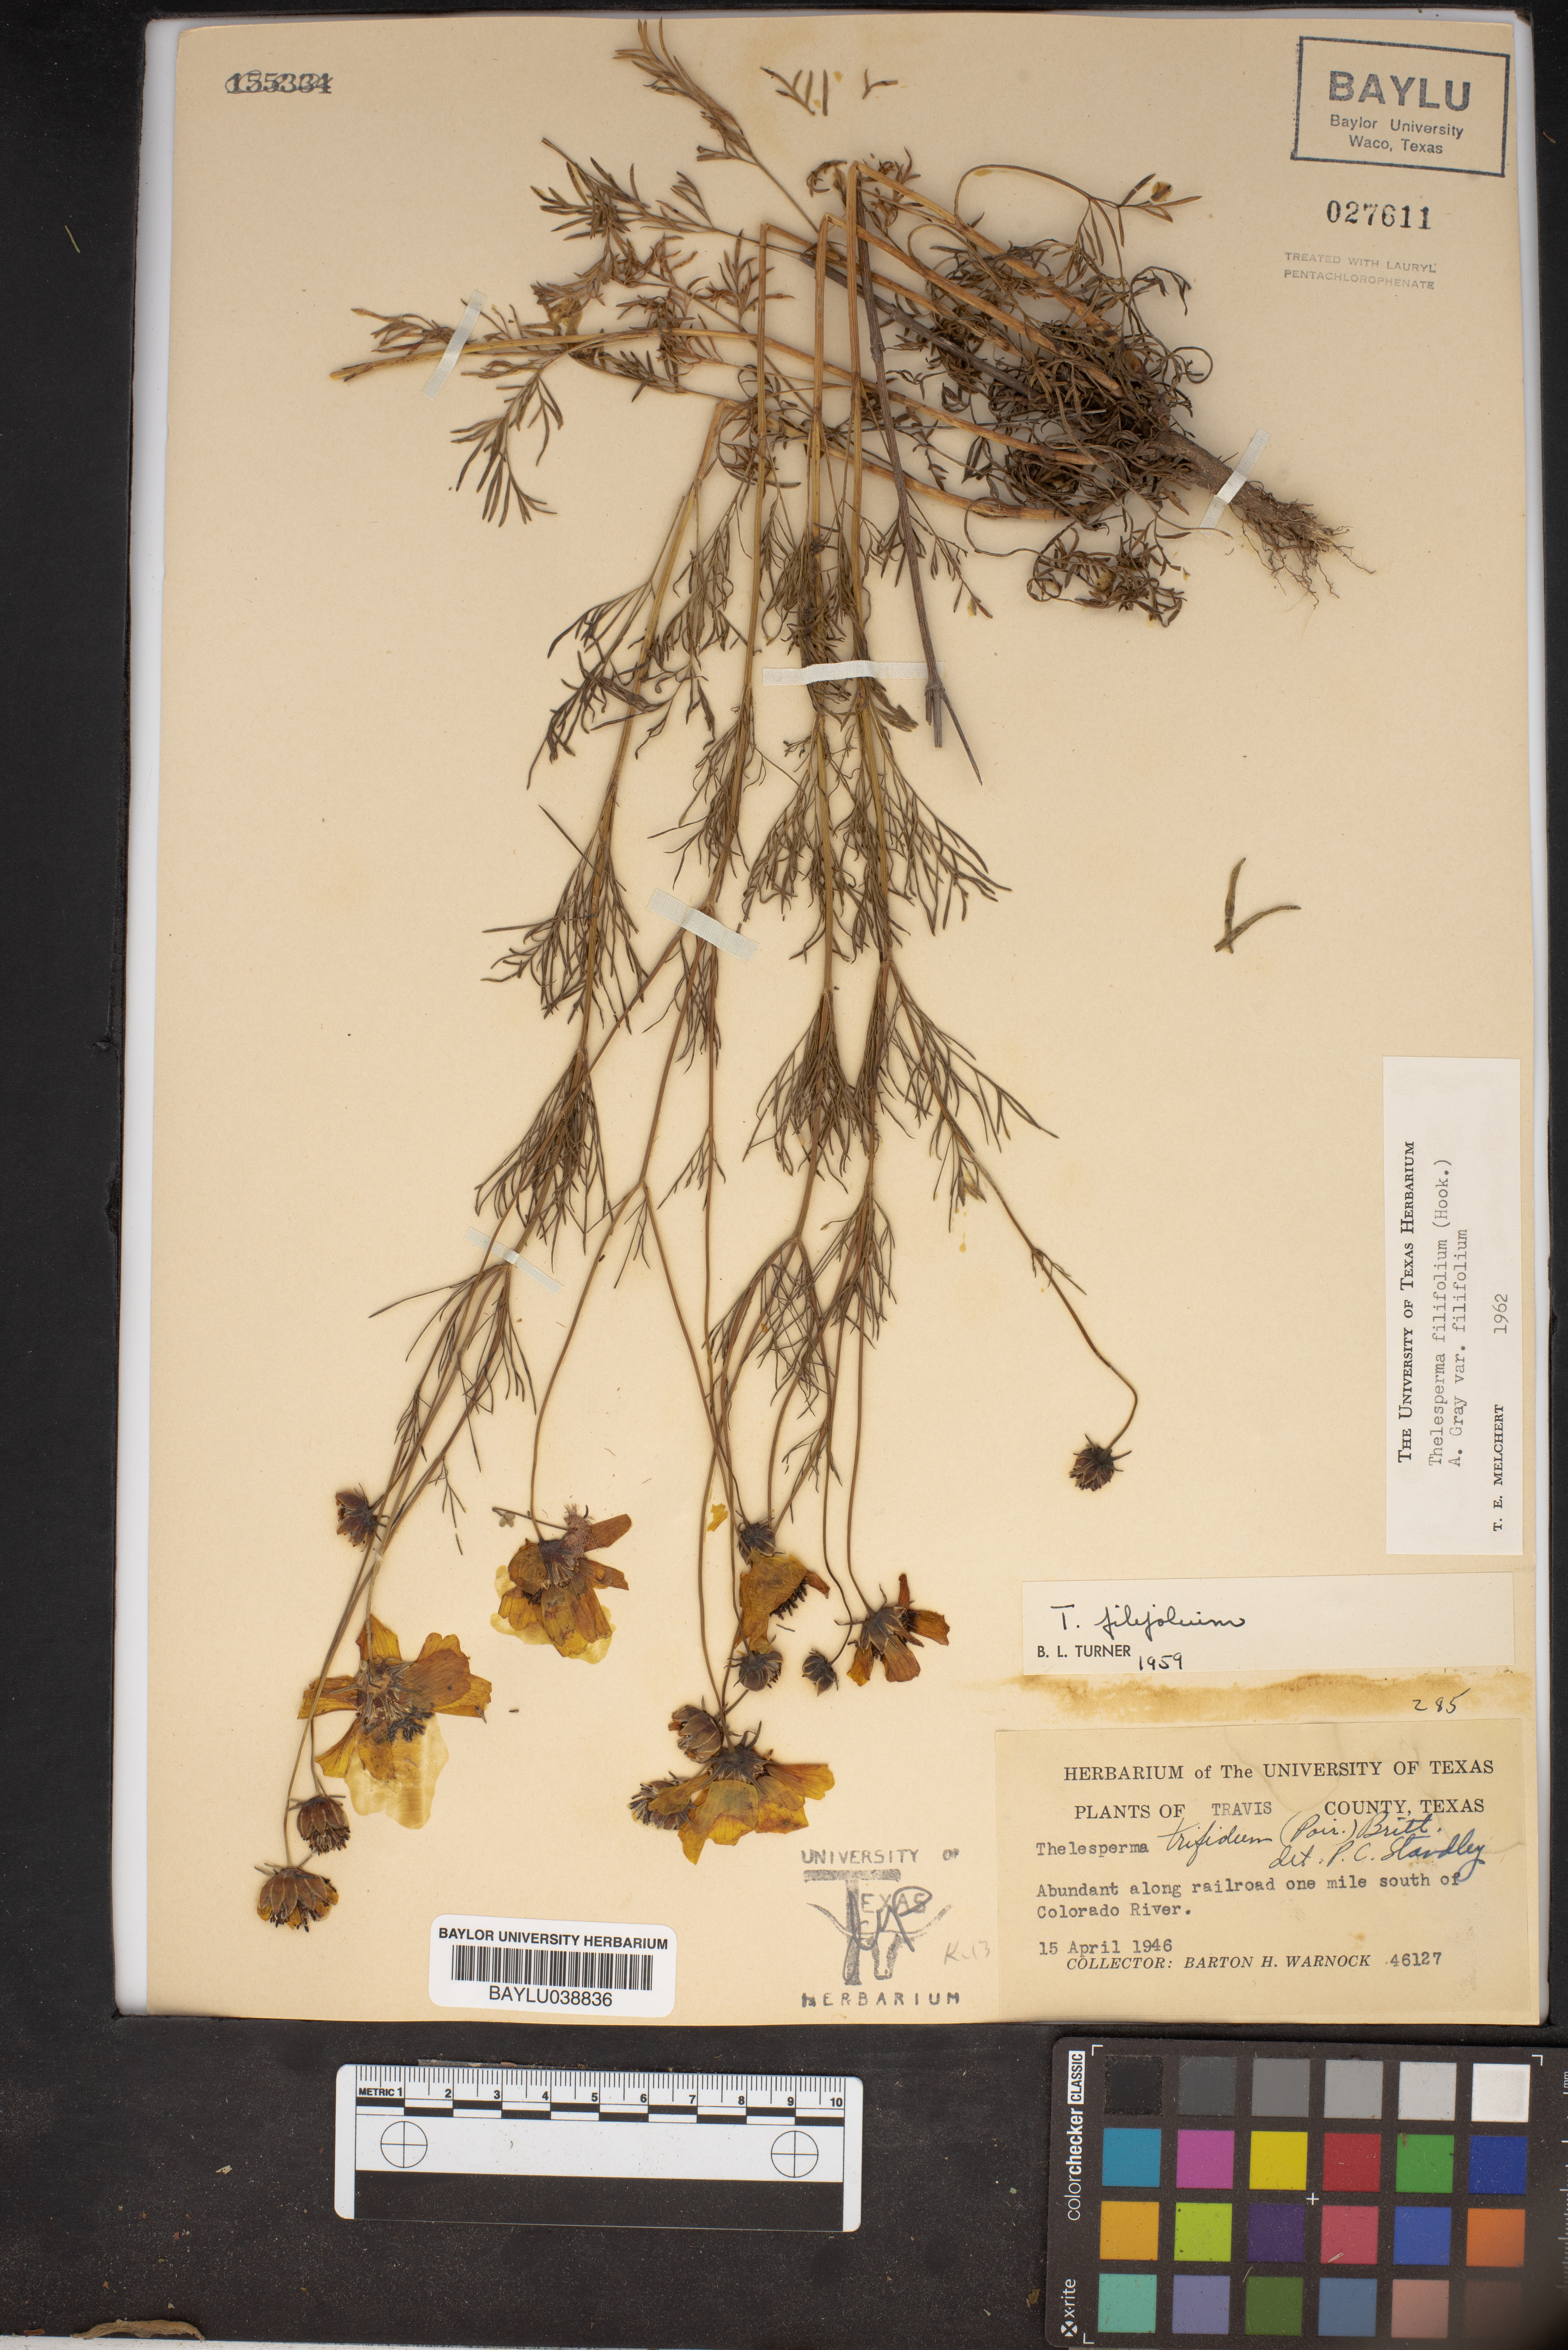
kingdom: Plantae
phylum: Tracheophyta
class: Magnoliopsida
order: Asterales
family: Asteraceae
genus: Thelesperma
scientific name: Thelesperma filifolium
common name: Stiff greenthread
